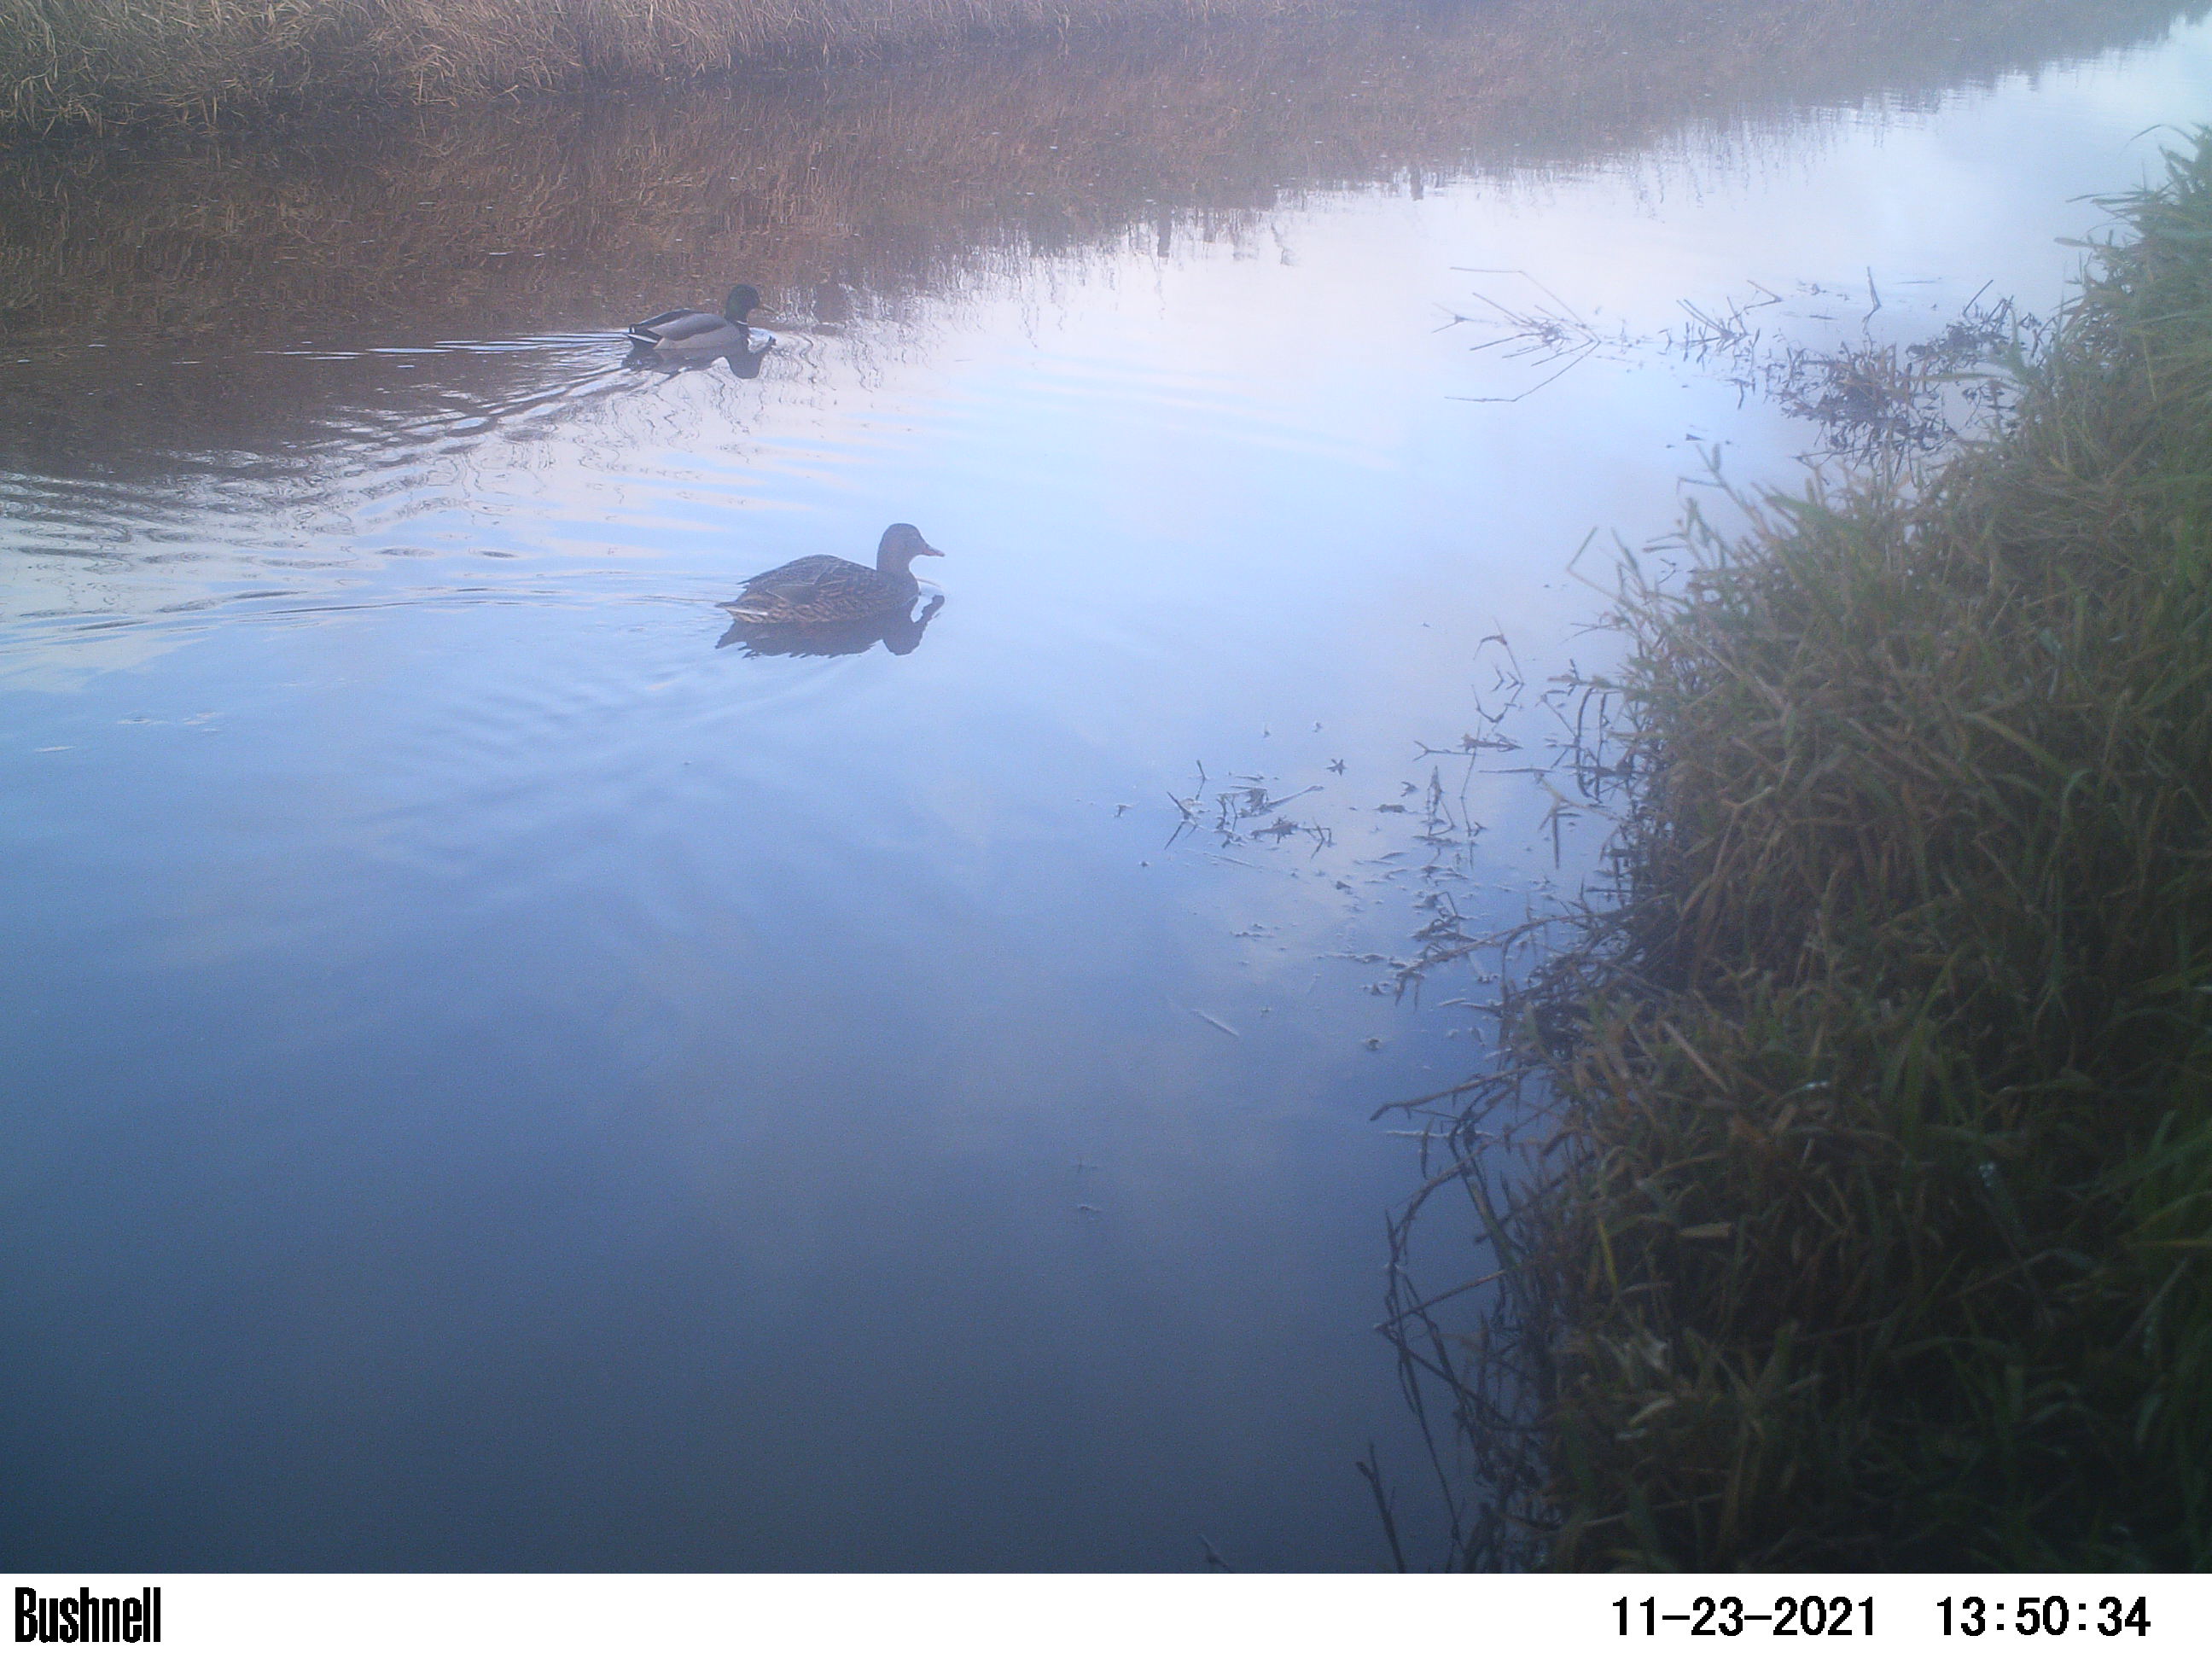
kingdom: Animalia
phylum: Chordata
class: Aves
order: Anseriformes
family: Anatidae
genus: Anas
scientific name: Anas
